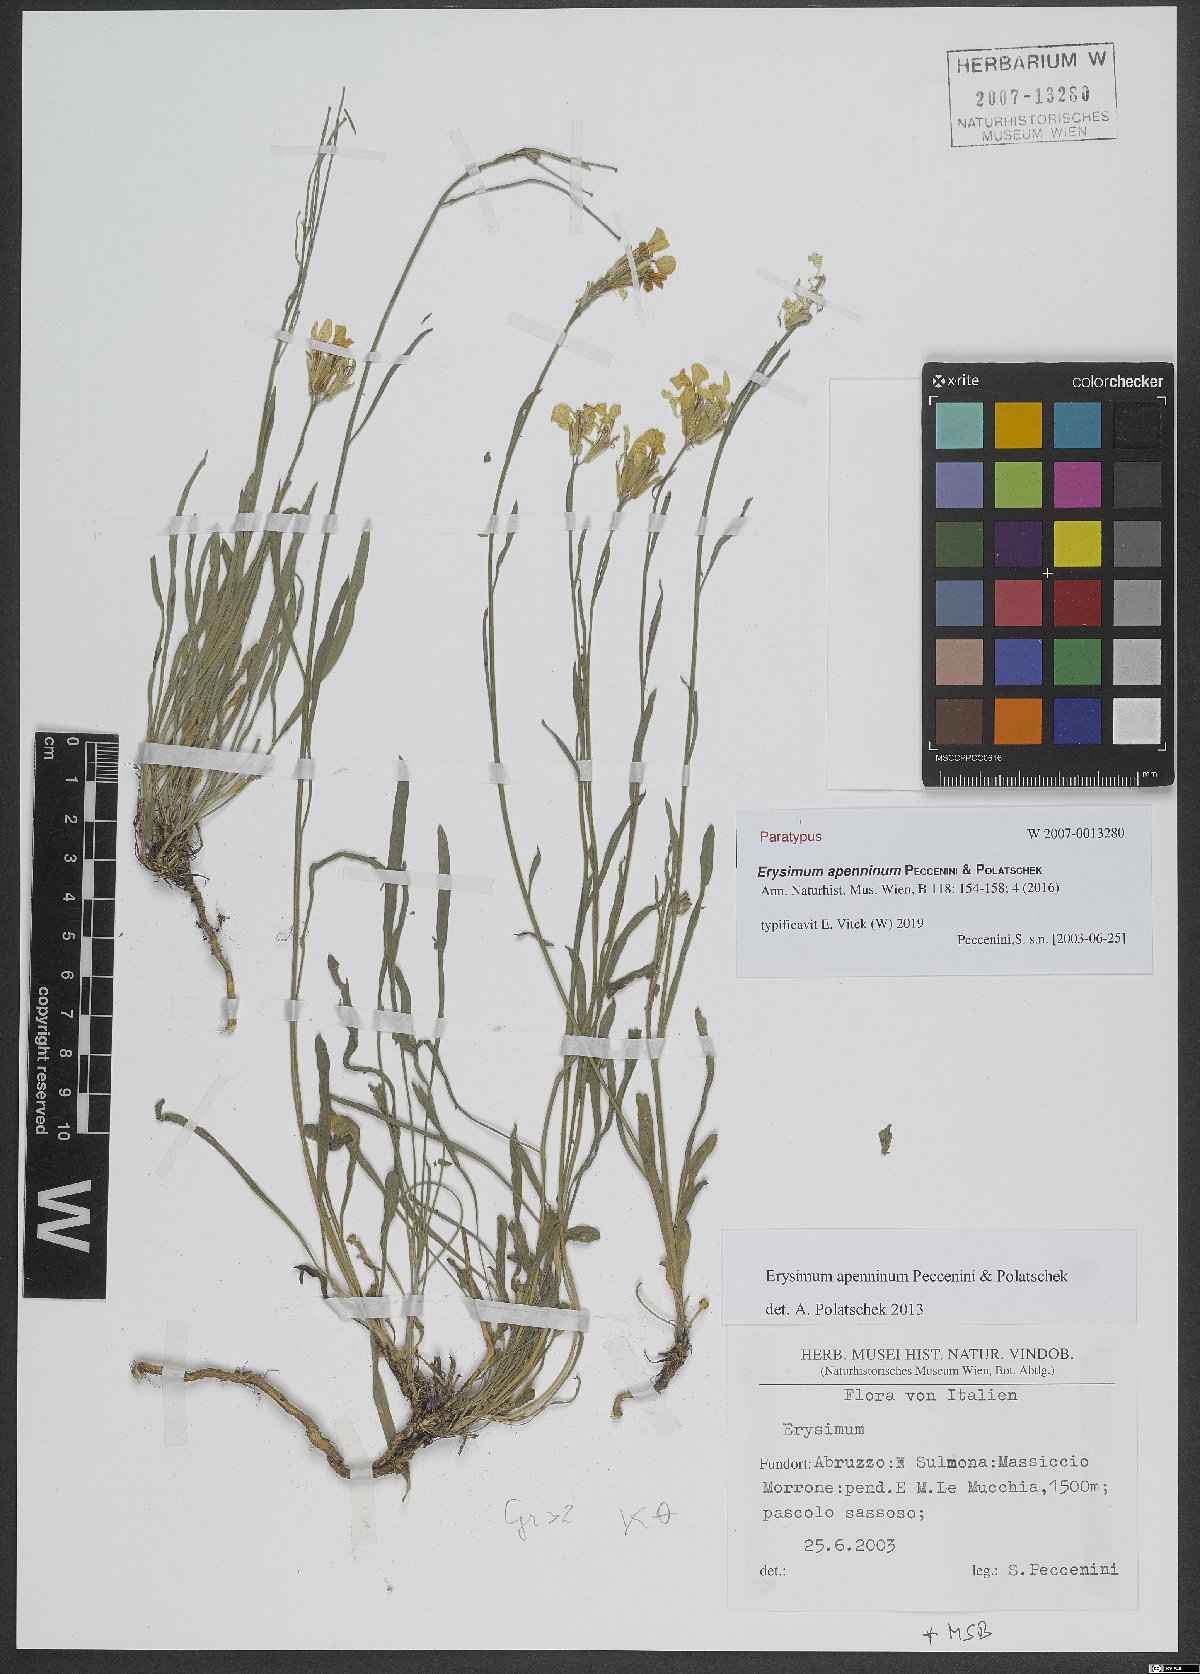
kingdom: Plantae
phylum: Tracheophyta
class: Magnoliopsida
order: Brassicales
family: Brassicaceae
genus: Erysimum
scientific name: Erysimum apenninum
